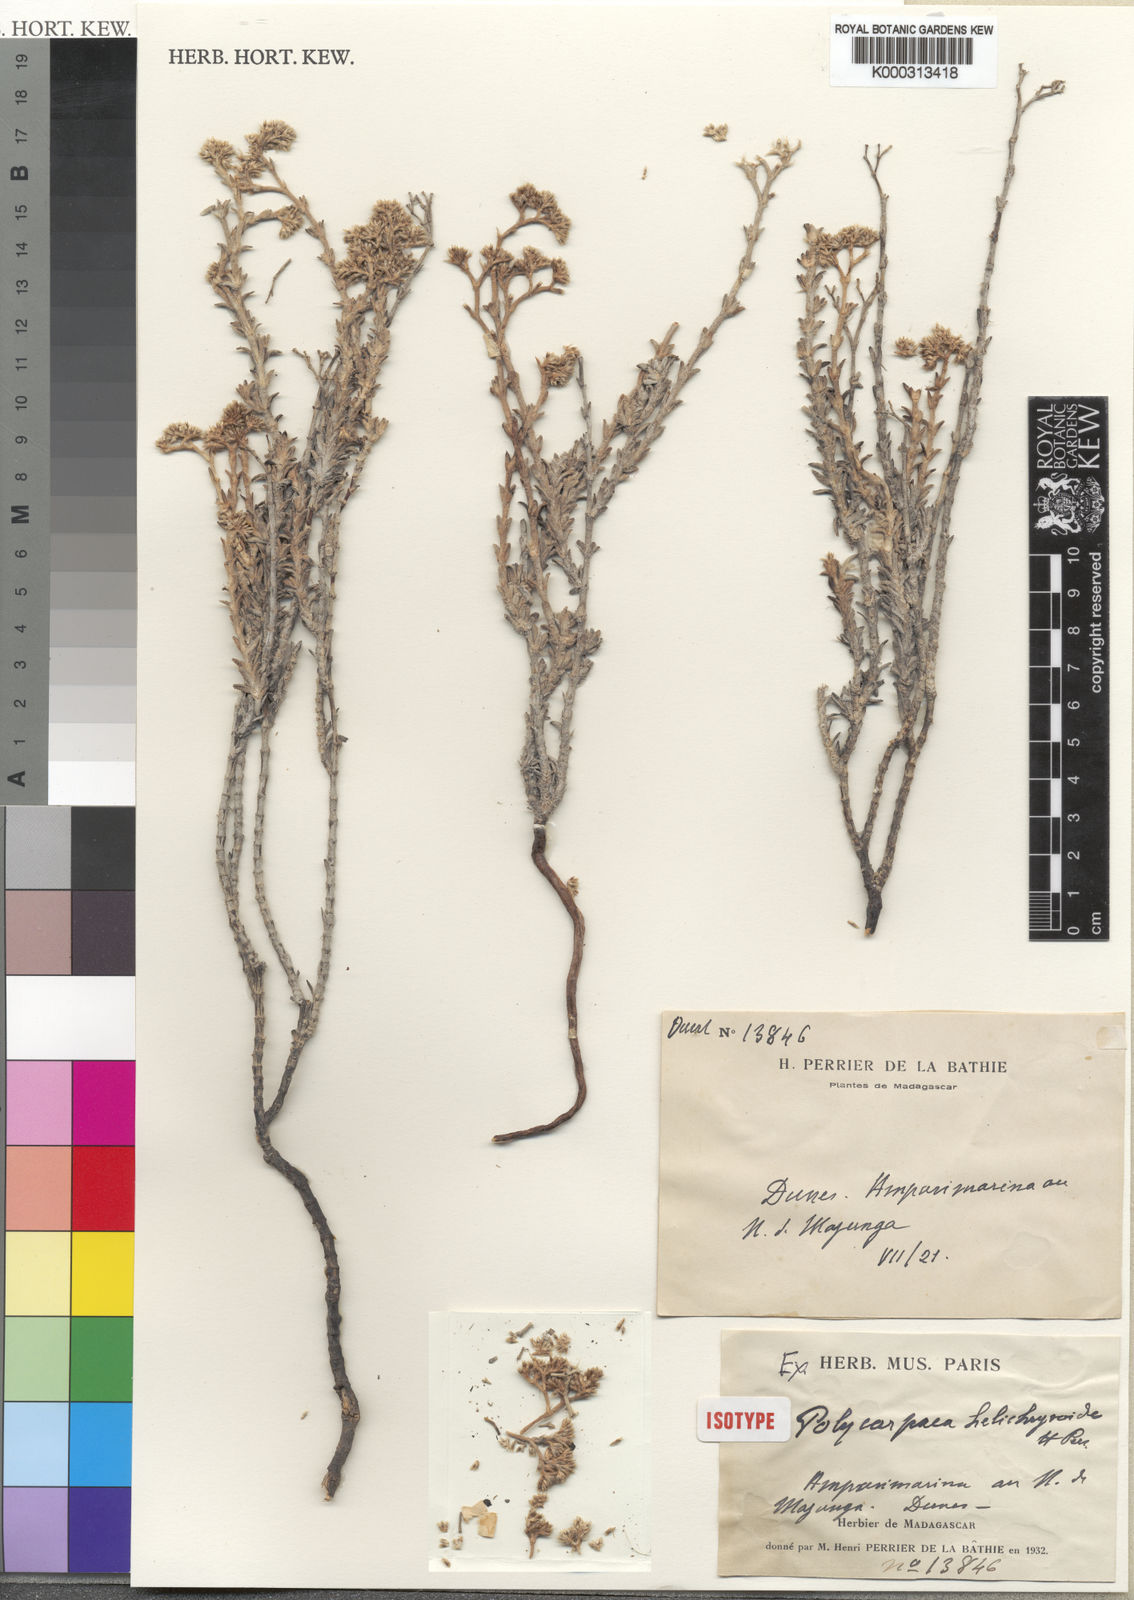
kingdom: Plantae
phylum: Tracheophyta
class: Magnoliopsida
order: Caryophyllales
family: Caryophyllaceae
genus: Polycarpaea
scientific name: Polycarpaea
